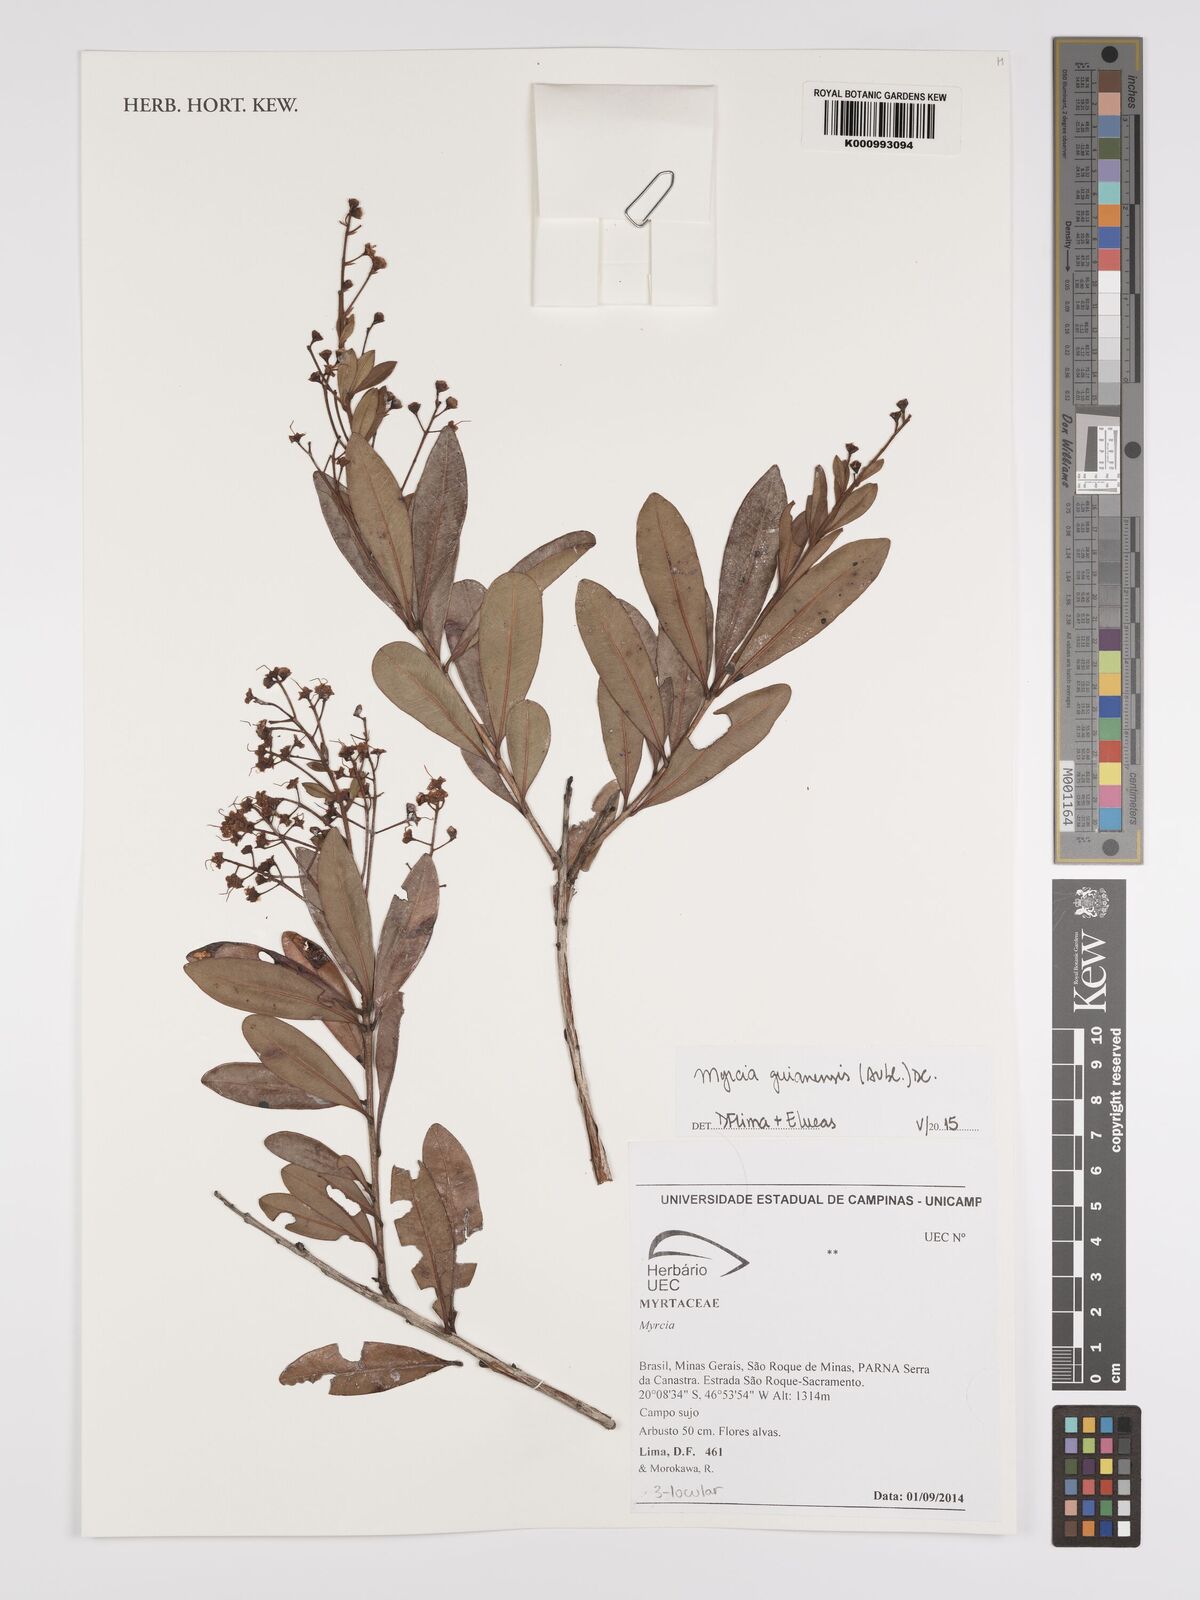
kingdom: Plantae
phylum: Tracheophyta
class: Magnoliopsida
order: Myrtales
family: Myrtaceae
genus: Myrcia
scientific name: Myrcia guianensis
